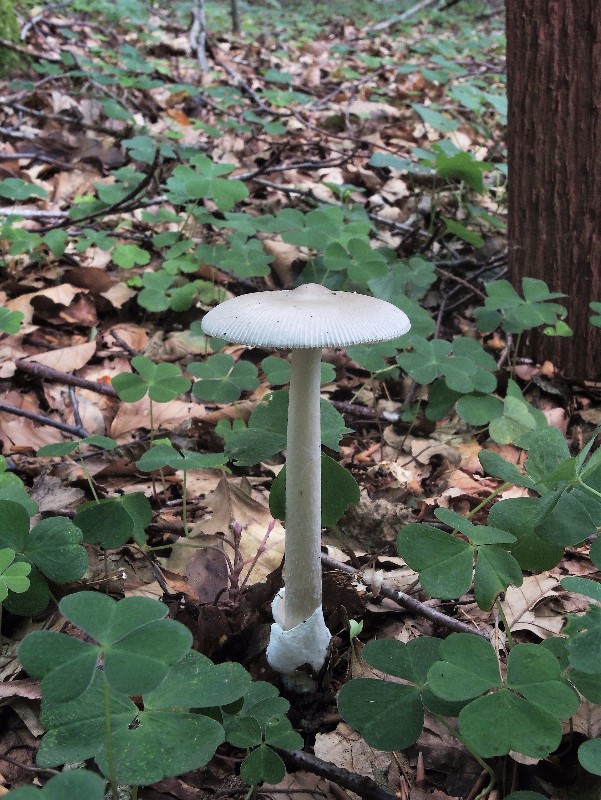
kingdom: Fungi
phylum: Basidiomycota
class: Agaricomycetes
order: Agaricales
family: Amanitaceae
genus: Amanita
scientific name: Amanita vaginata
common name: grå kam-fluesvamp
